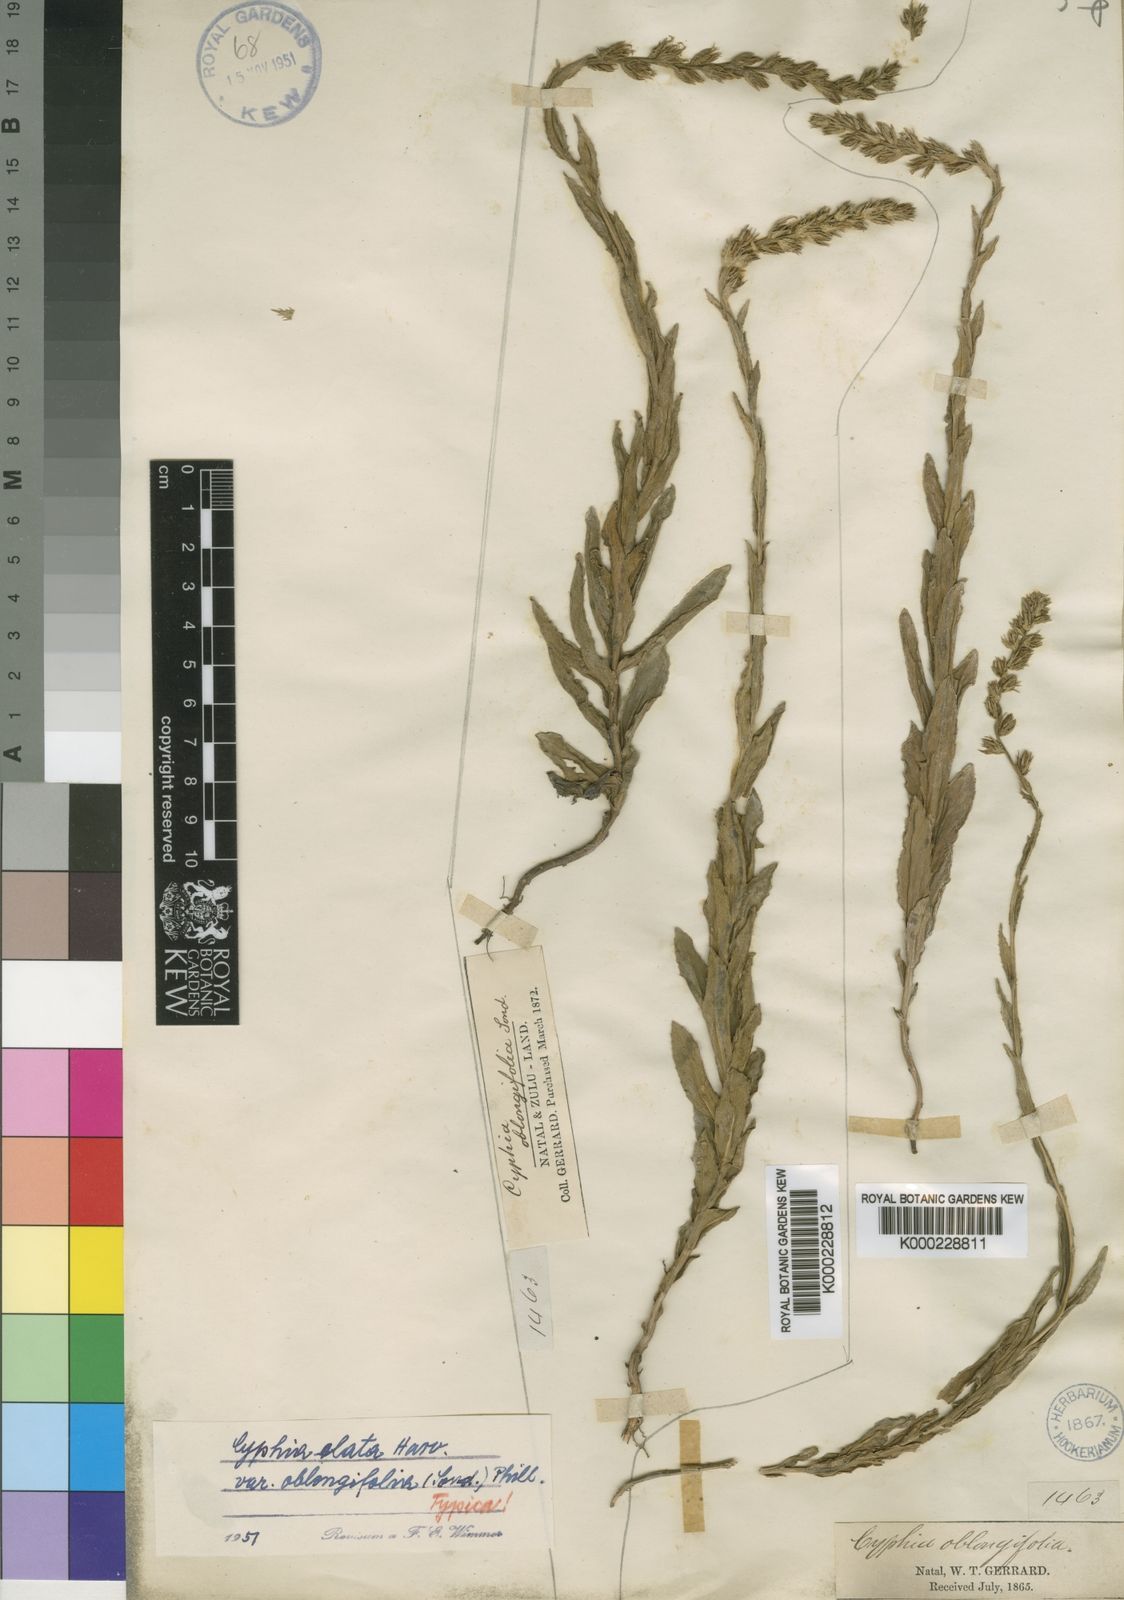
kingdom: Plantae
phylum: Tracheophyta
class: Magnoliopsida
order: Asterales
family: Campanulaceae
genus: Cyphia
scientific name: Cyphia elata
